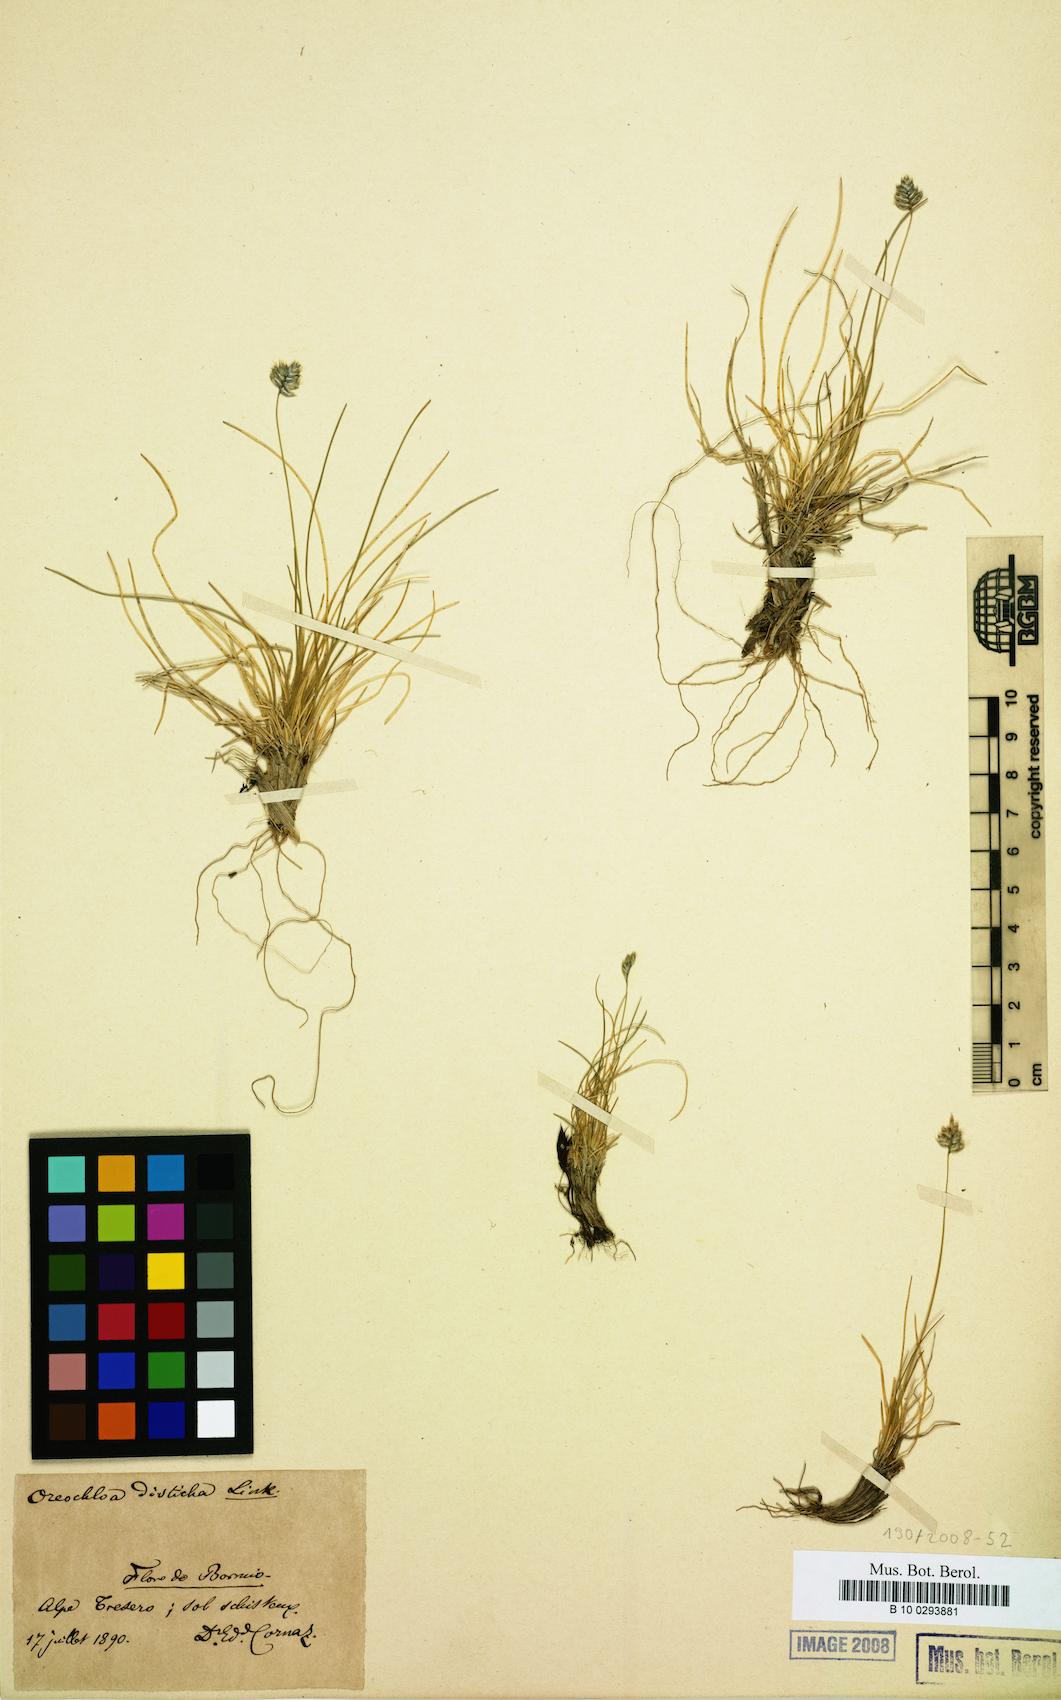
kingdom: Plantae
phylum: Tracheophyta
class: Liliopsida
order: Poales
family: Poaceae
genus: Oreochloa
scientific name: Oreochloa disticha
